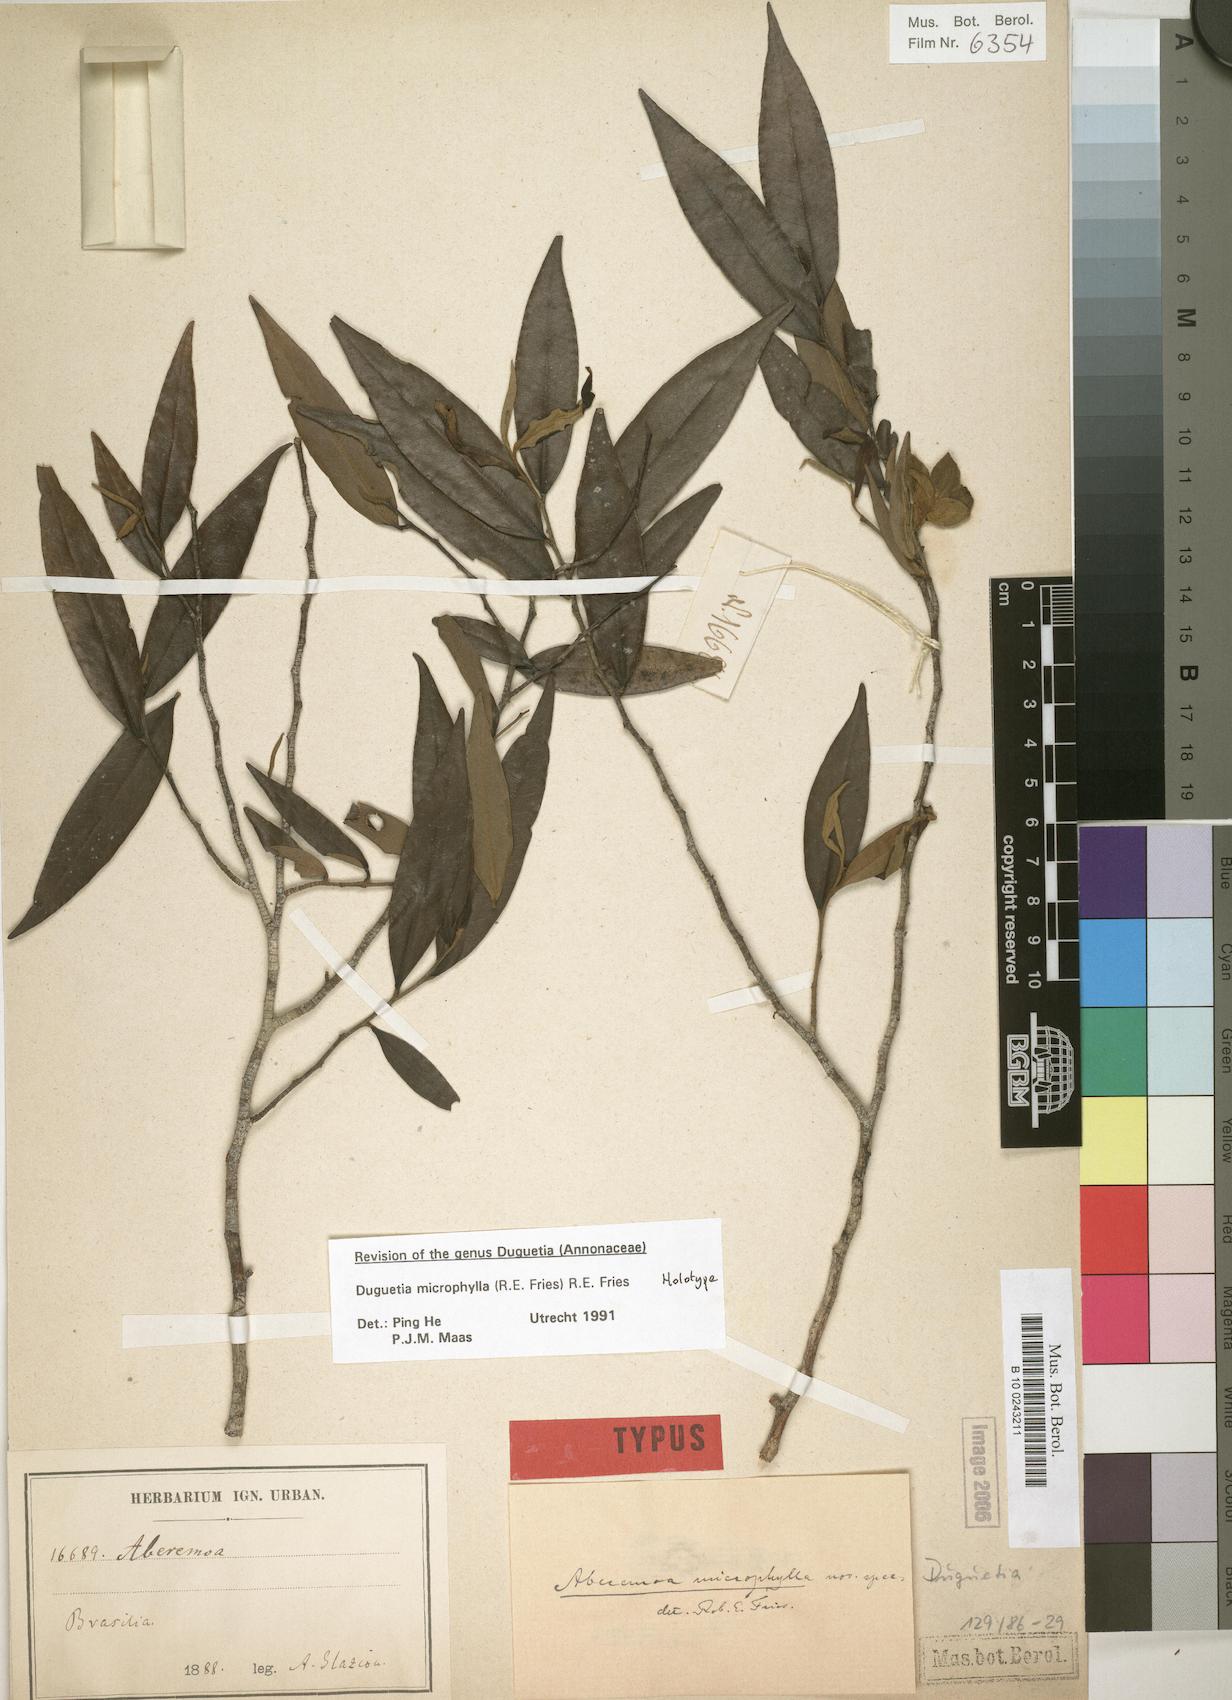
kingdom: Plantae
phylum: Tracheophyta
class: Magnoliopsida
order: Magnoliales
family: Annonaceae
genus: Duguetia
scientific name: Duguetia microphylla
